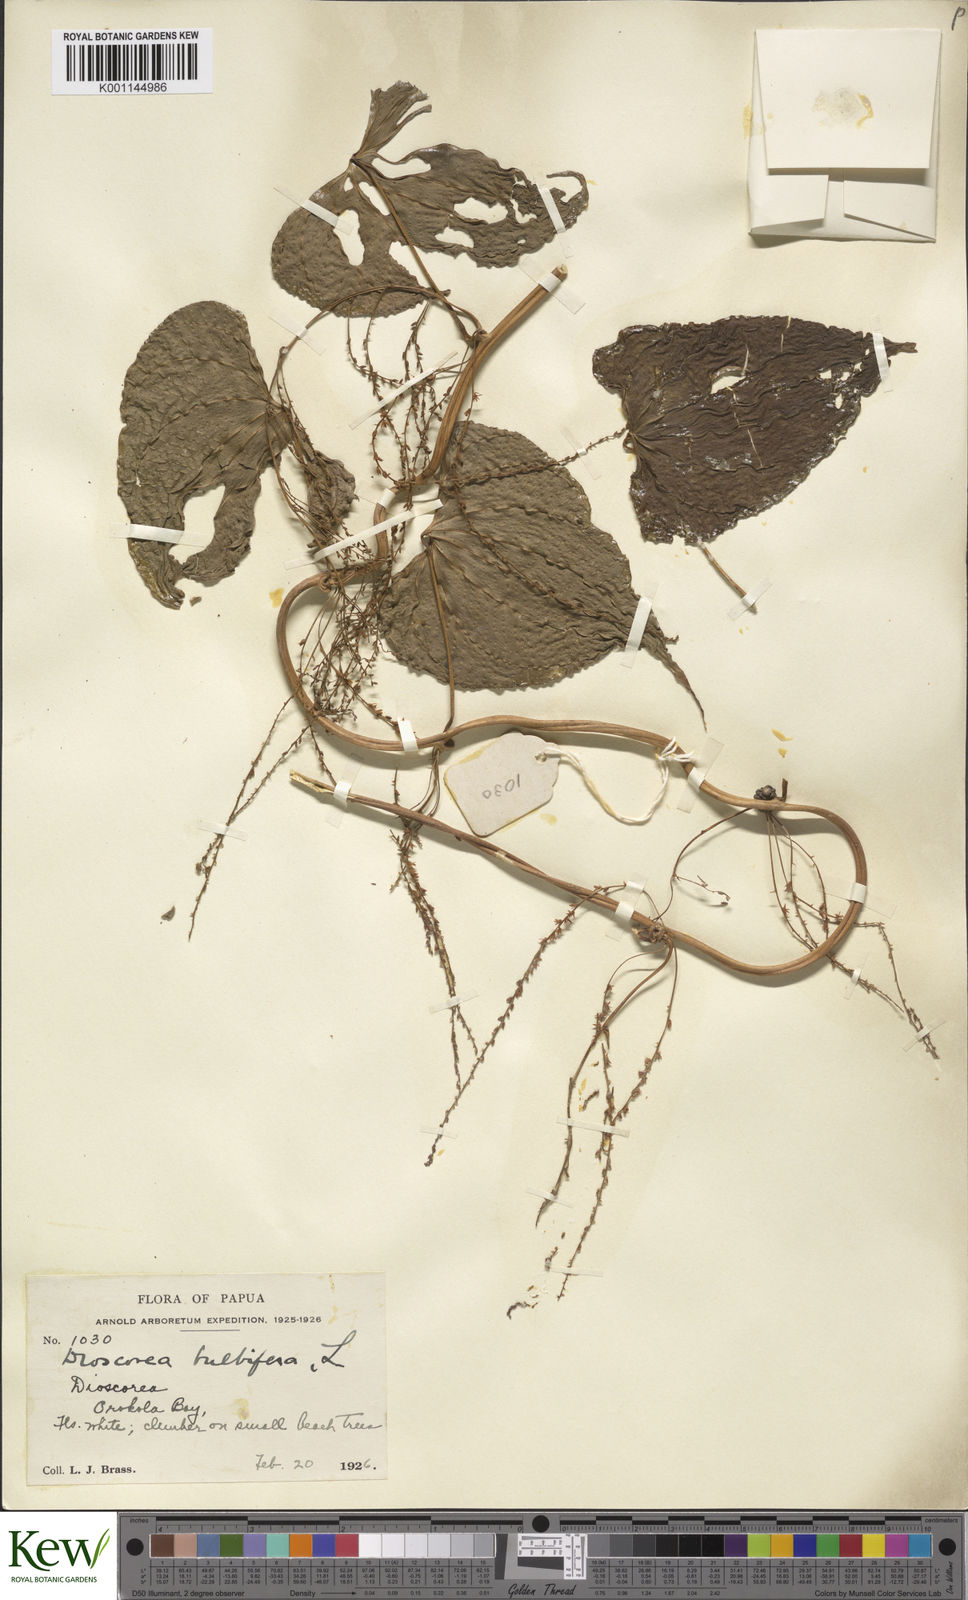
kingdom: Plantae
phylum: Tracheophyta
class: Liliopsida
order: Dioscoreales
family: Dioscoreaceae
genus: Dioscorea
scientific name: Dioscorea bulbifera
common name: Air yam
